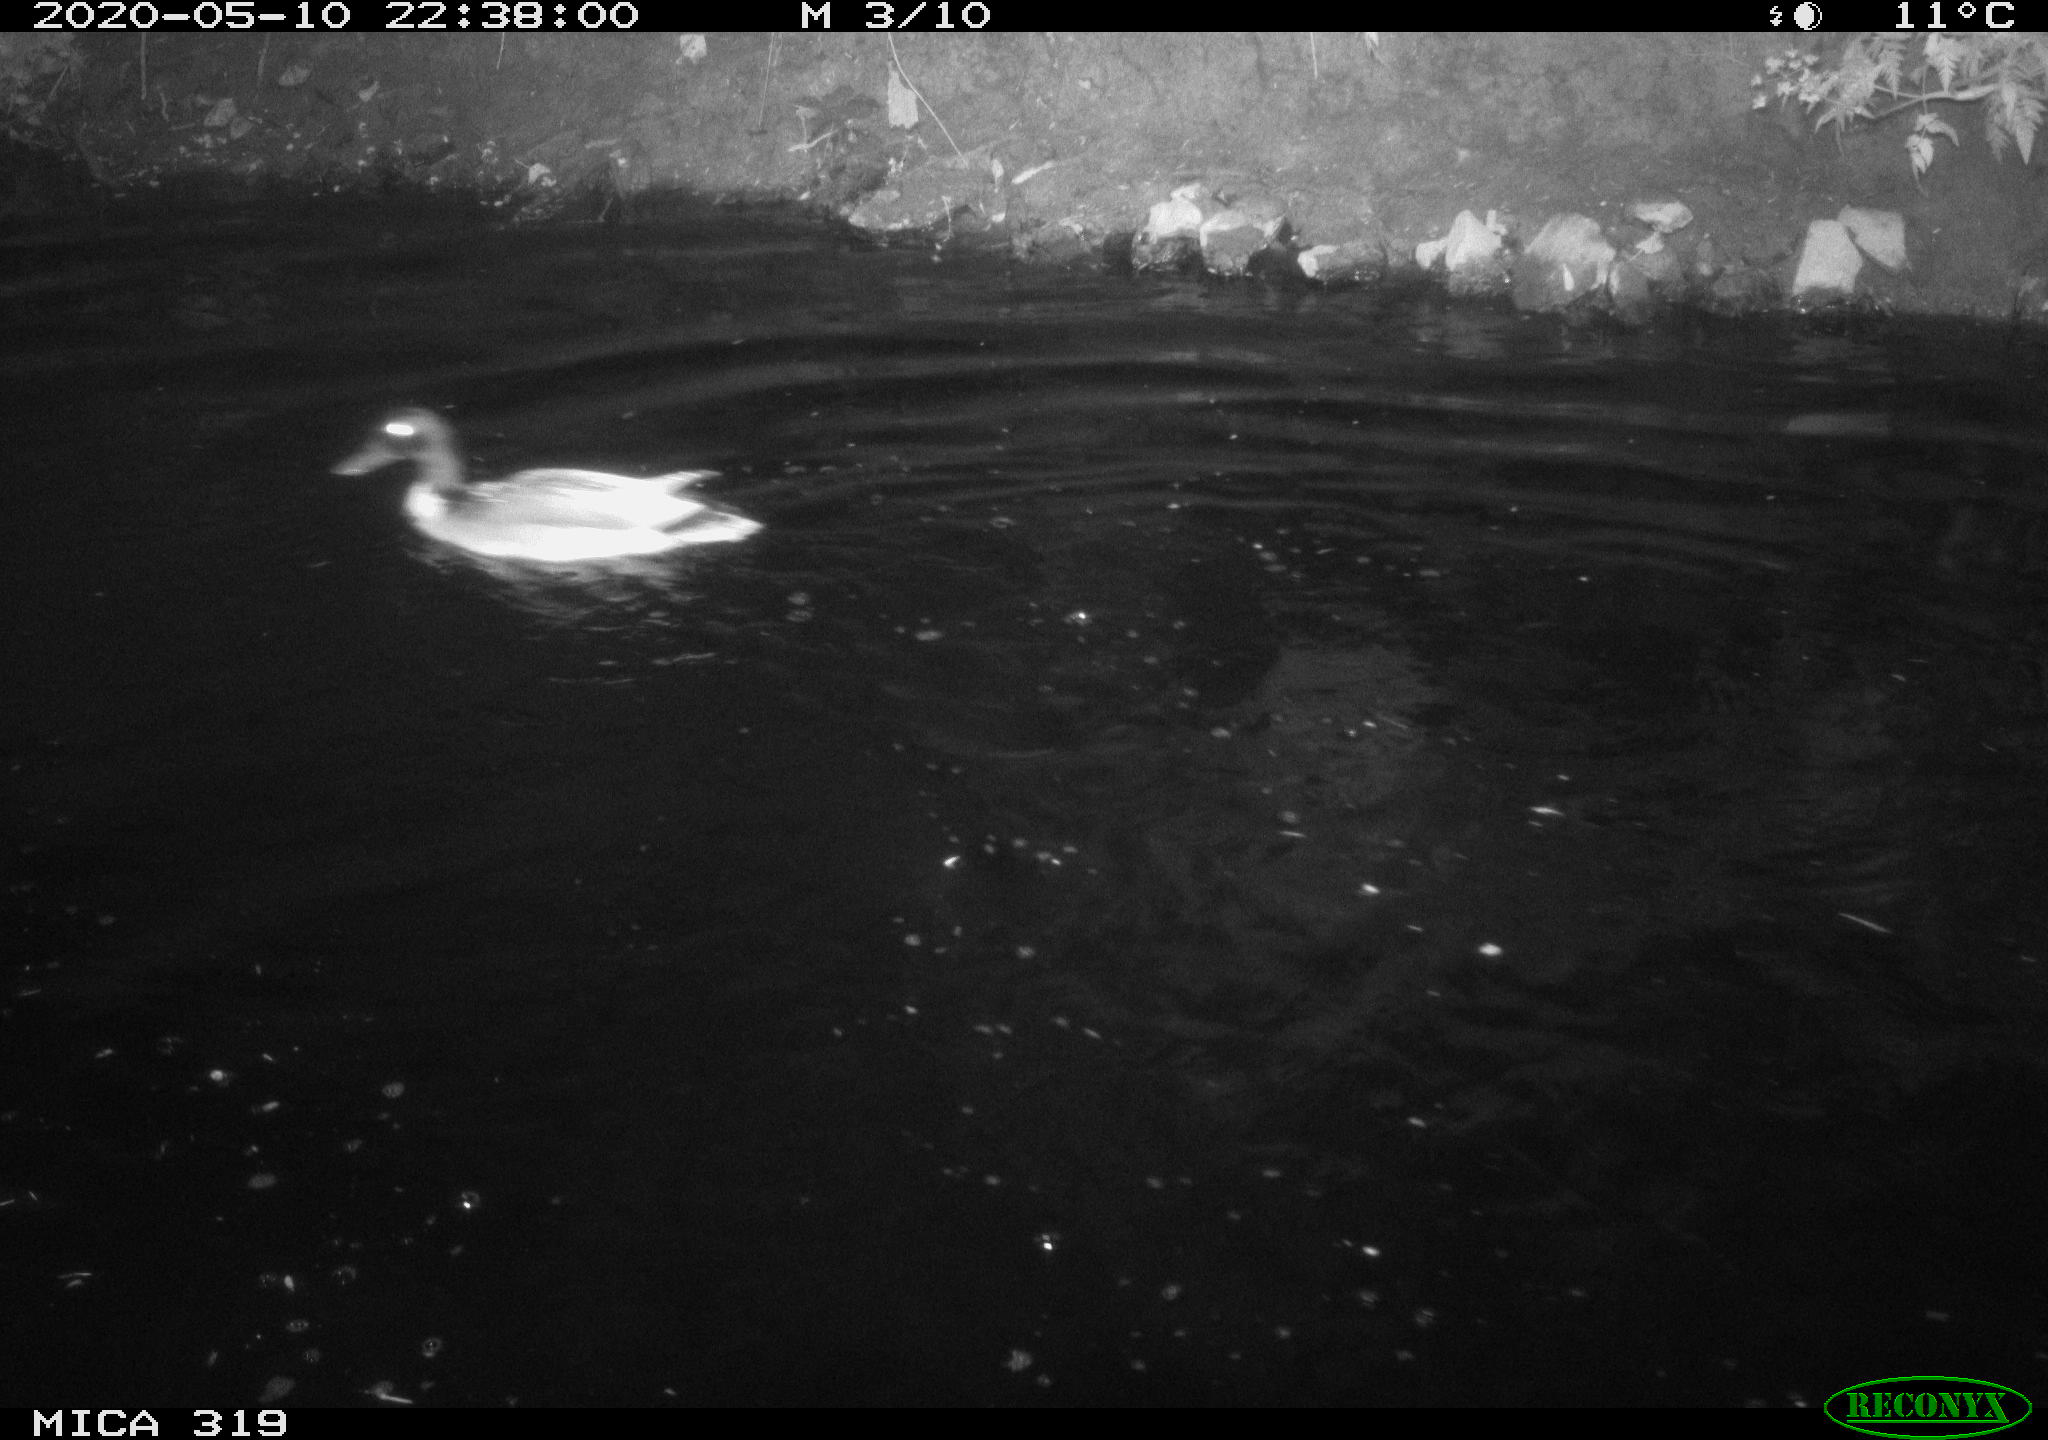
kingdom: Animalia
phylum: Chordata
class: Aves
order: Anseriformes
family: Anatidae
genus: Anas
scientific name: Anas platyrhynchos
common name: Mallard
